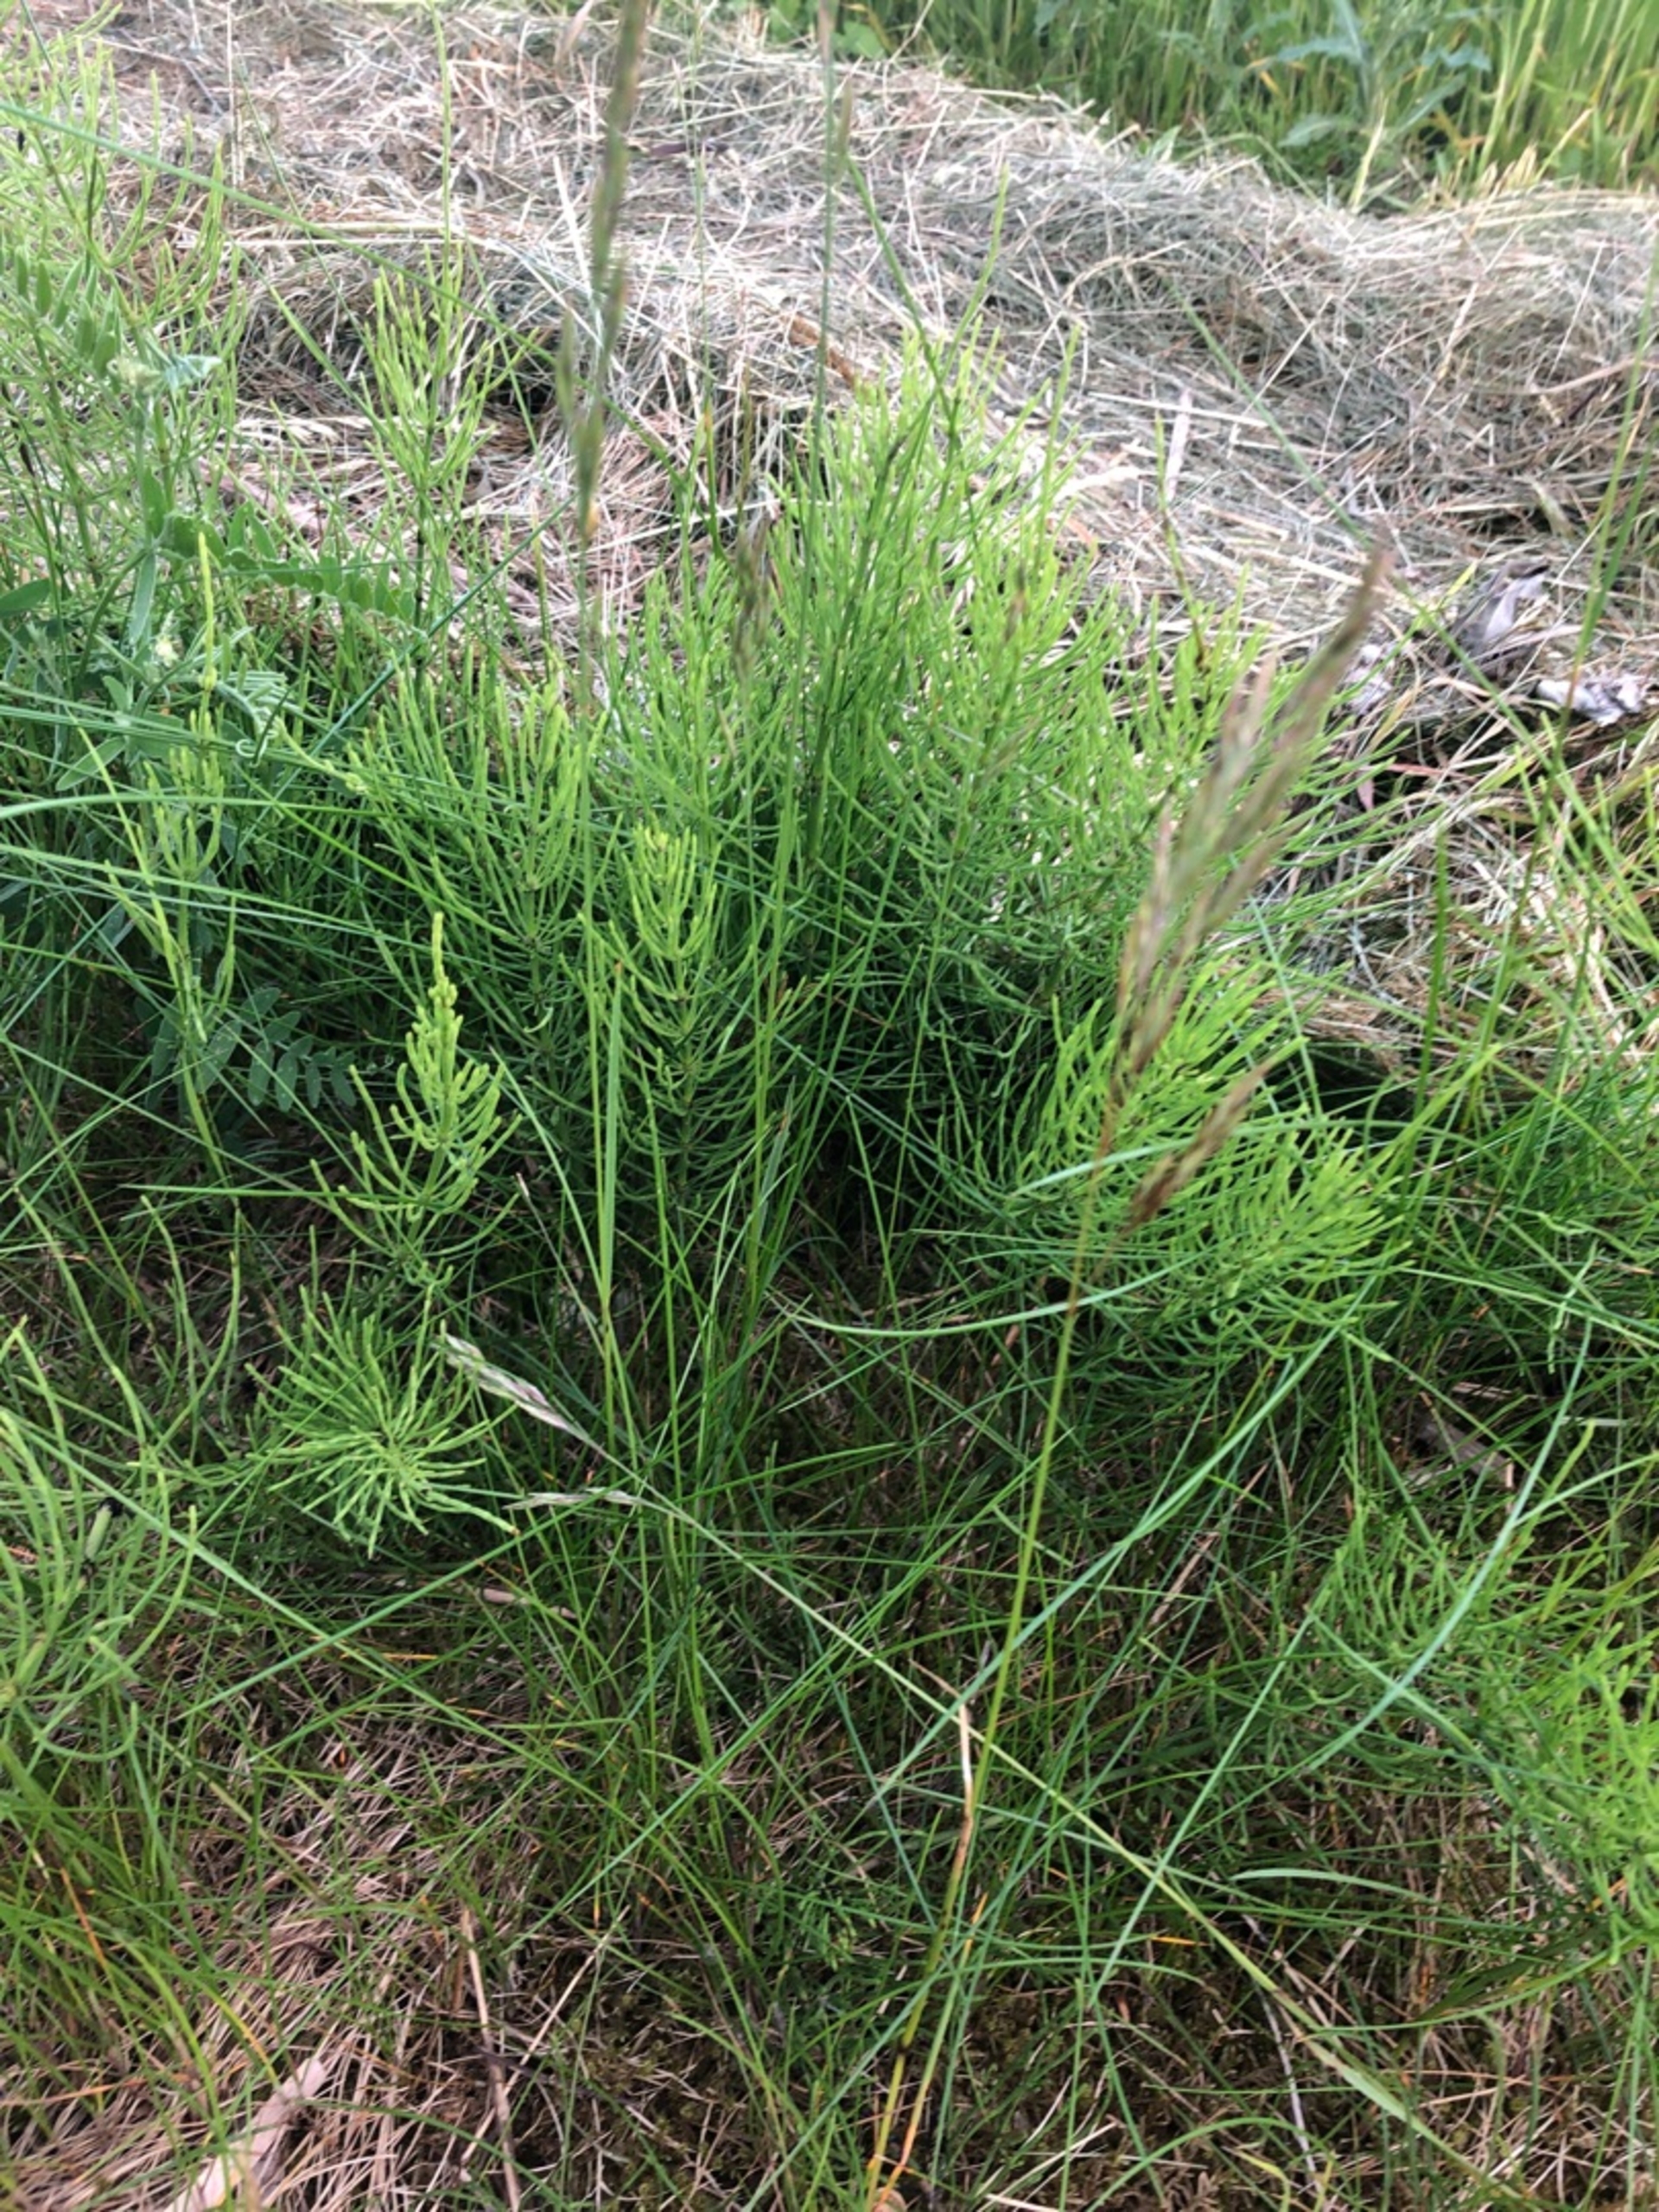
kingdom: Plantae
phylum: Tracheophyta
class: Polypodiopsida
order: Equisetales
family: Equisetaceae
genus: Equisetum
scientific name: Equisetum arvense
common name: Ager-padderok
